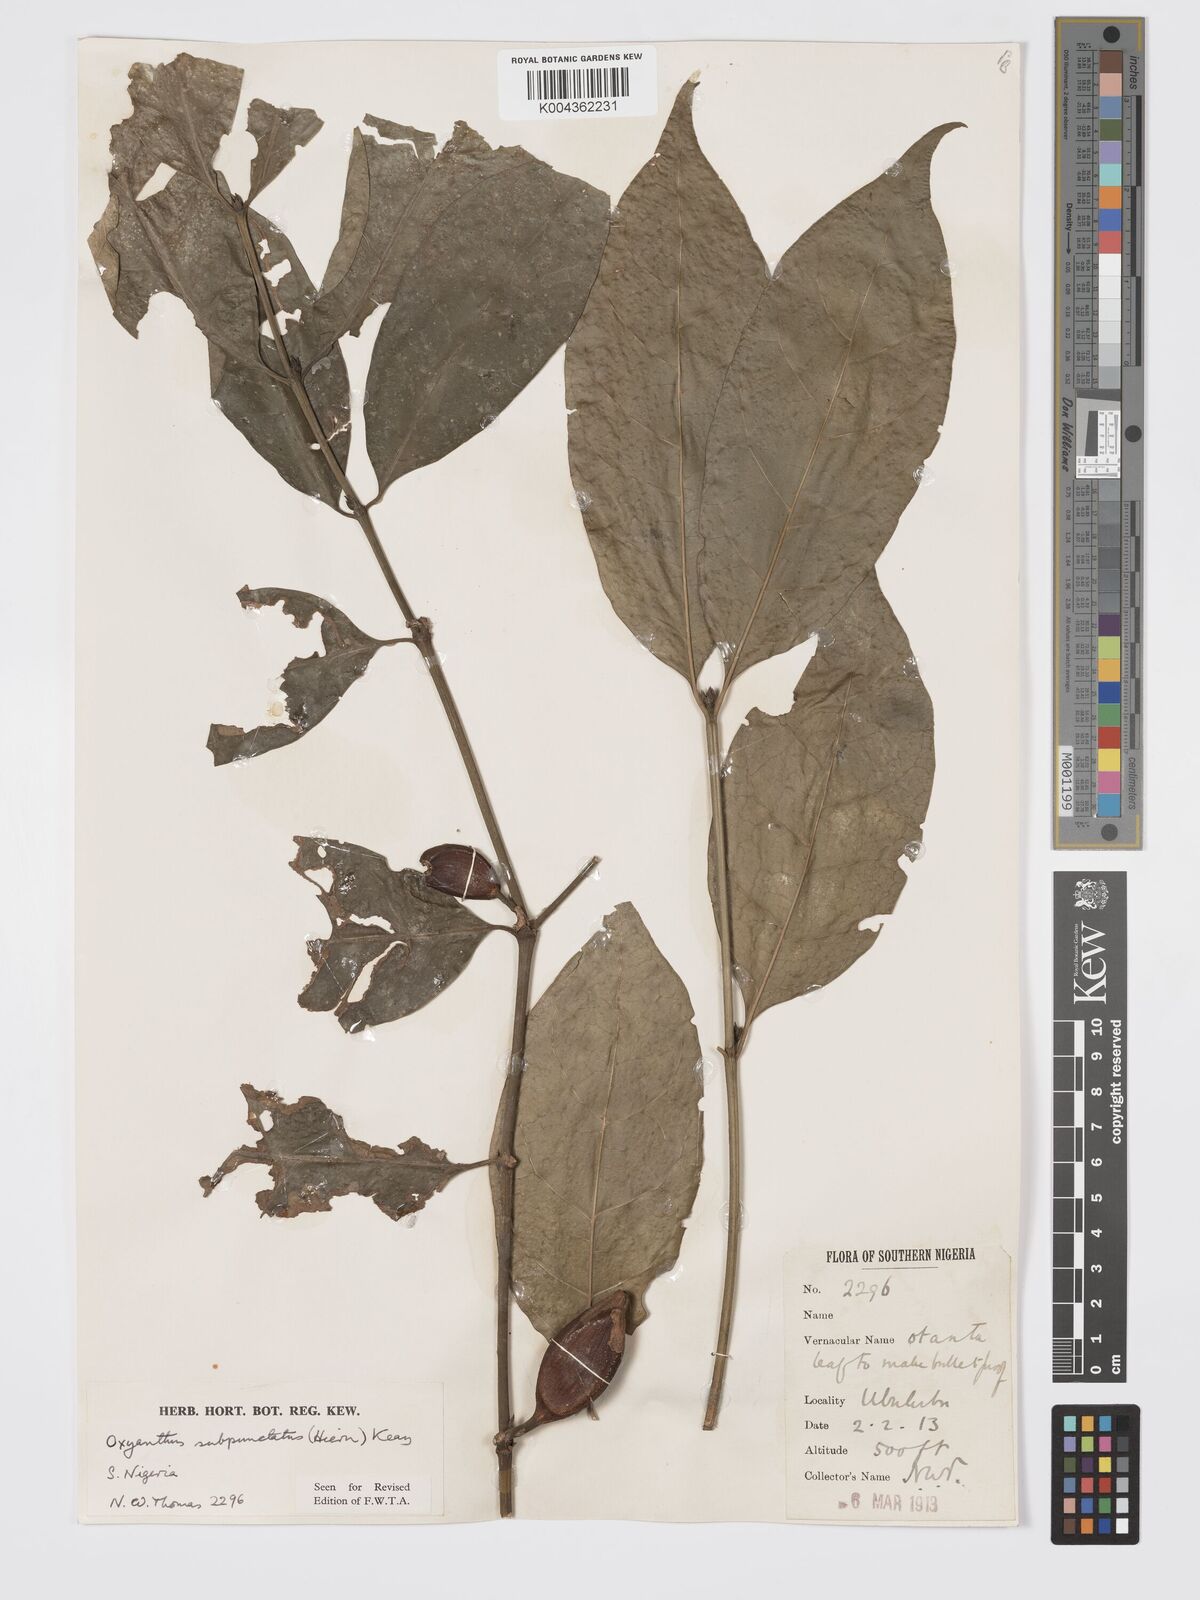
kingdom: Plantae
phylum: Tracheophyta
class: Magnoliopsida
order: Gentianales
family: Rubiaceae
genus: Oxyanthus
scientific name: Oxyanthus subpunctatus
